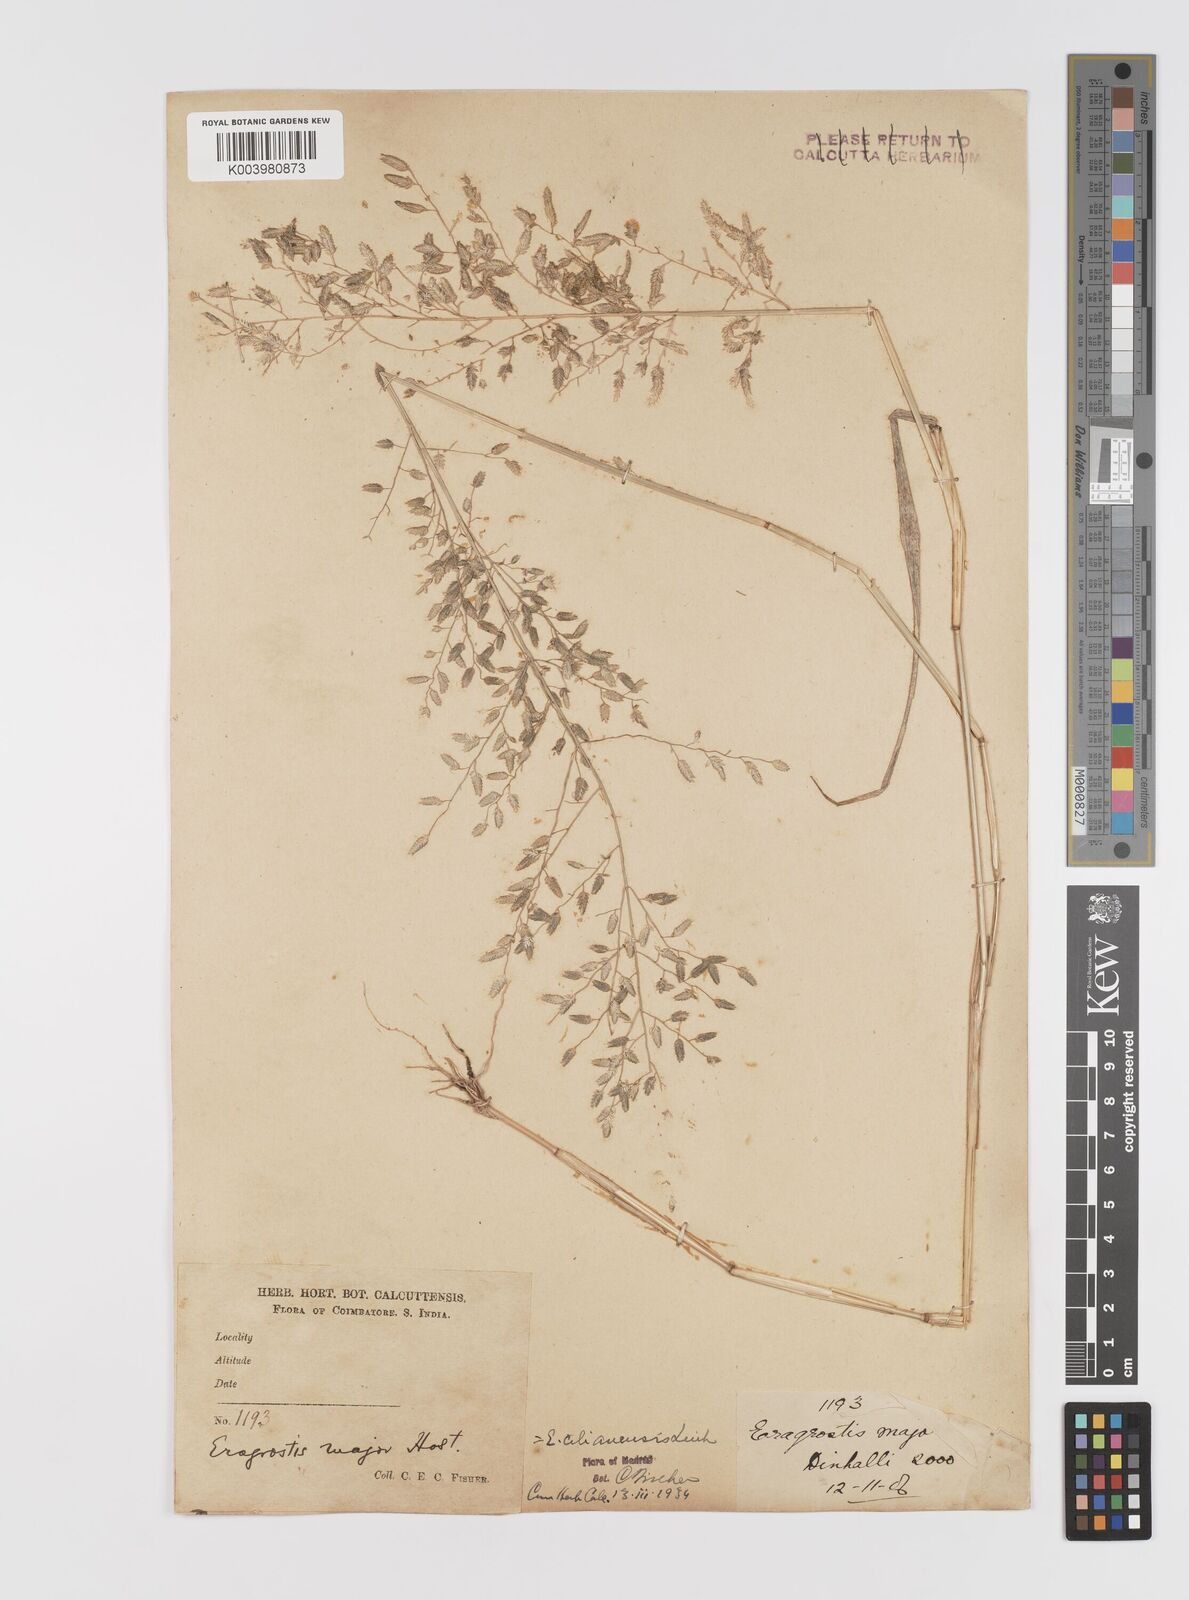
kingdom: Plantae
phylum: Tracheophyta
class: Liliopsida
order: Poales
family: Poaceae
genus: Eragrostis
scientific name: Eragrostis cilianensis
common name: Stinkgrass
